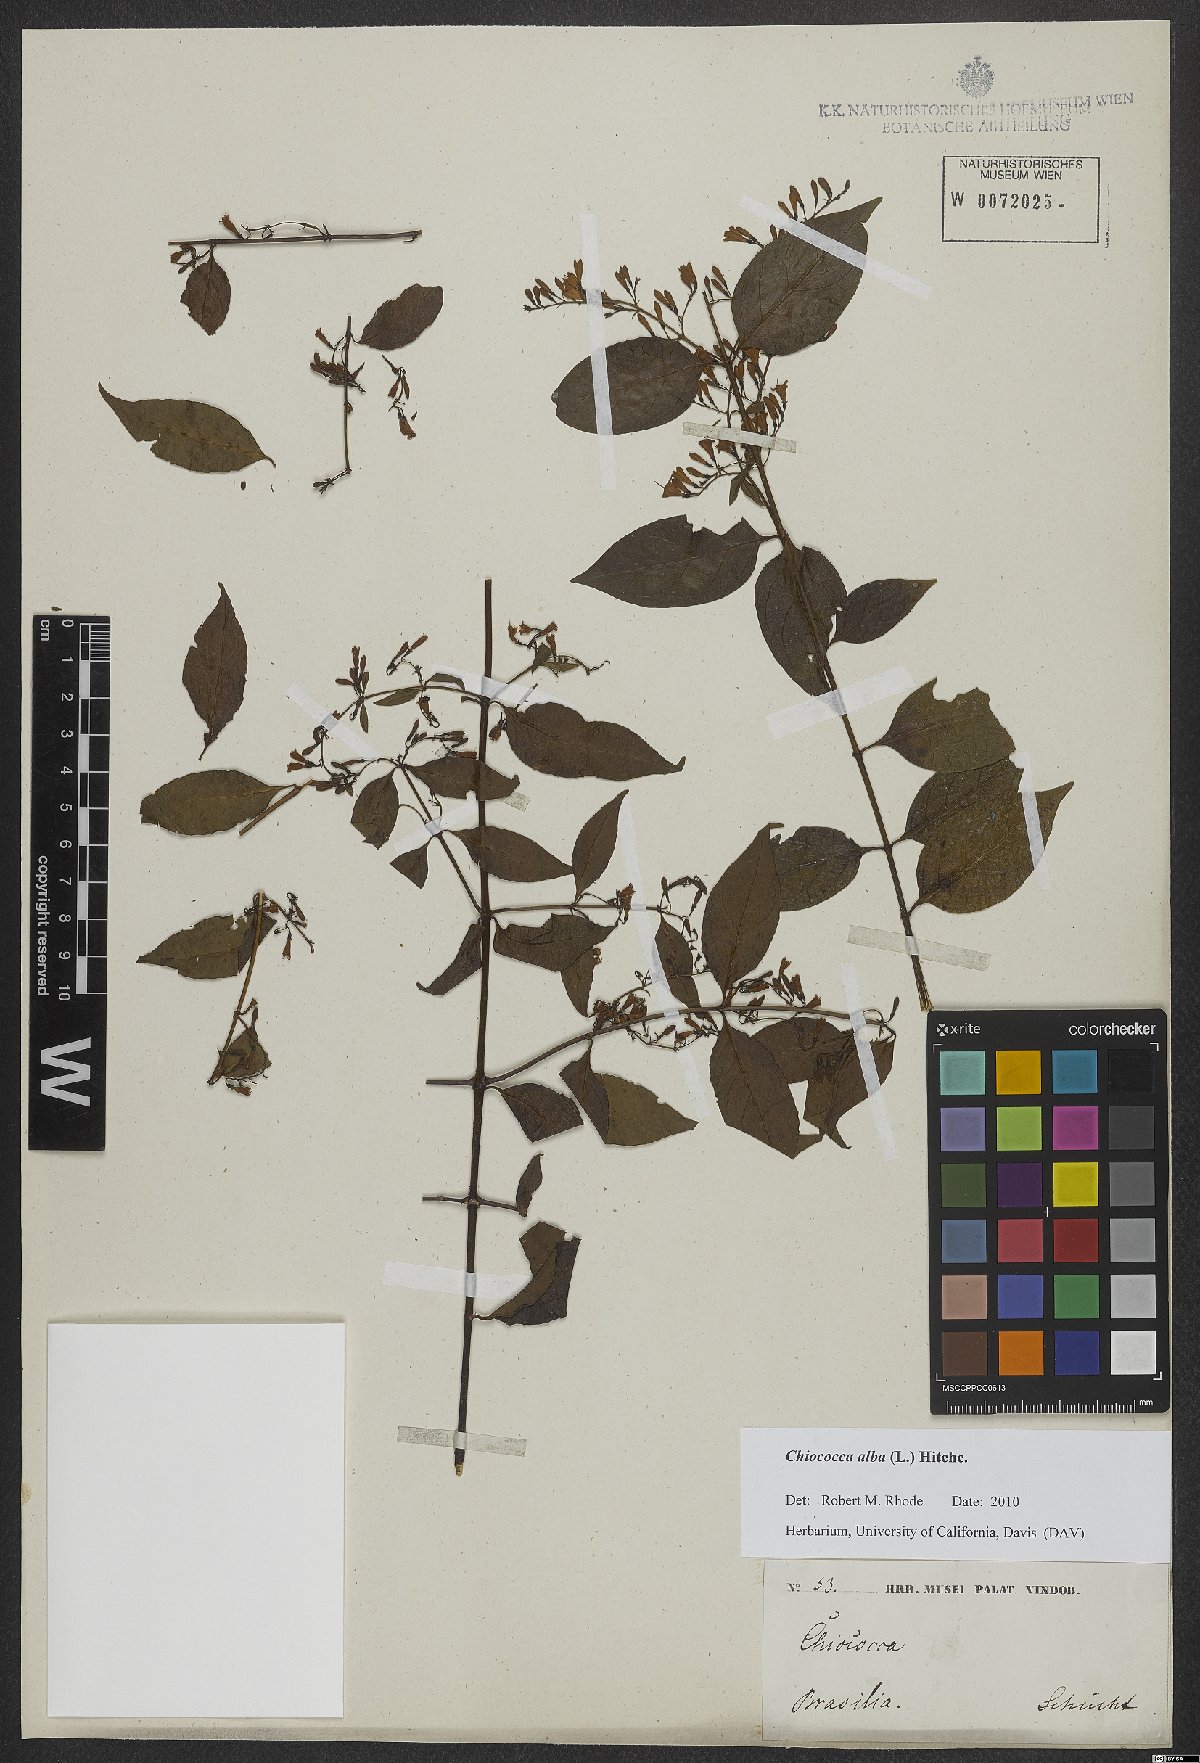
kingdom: Plantae
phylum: Tracheophyta
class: Magnoliopsida
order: Gentianales
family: Rubiaceae
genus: Chiococca
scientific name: Chiococca alba
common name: Snowberry
